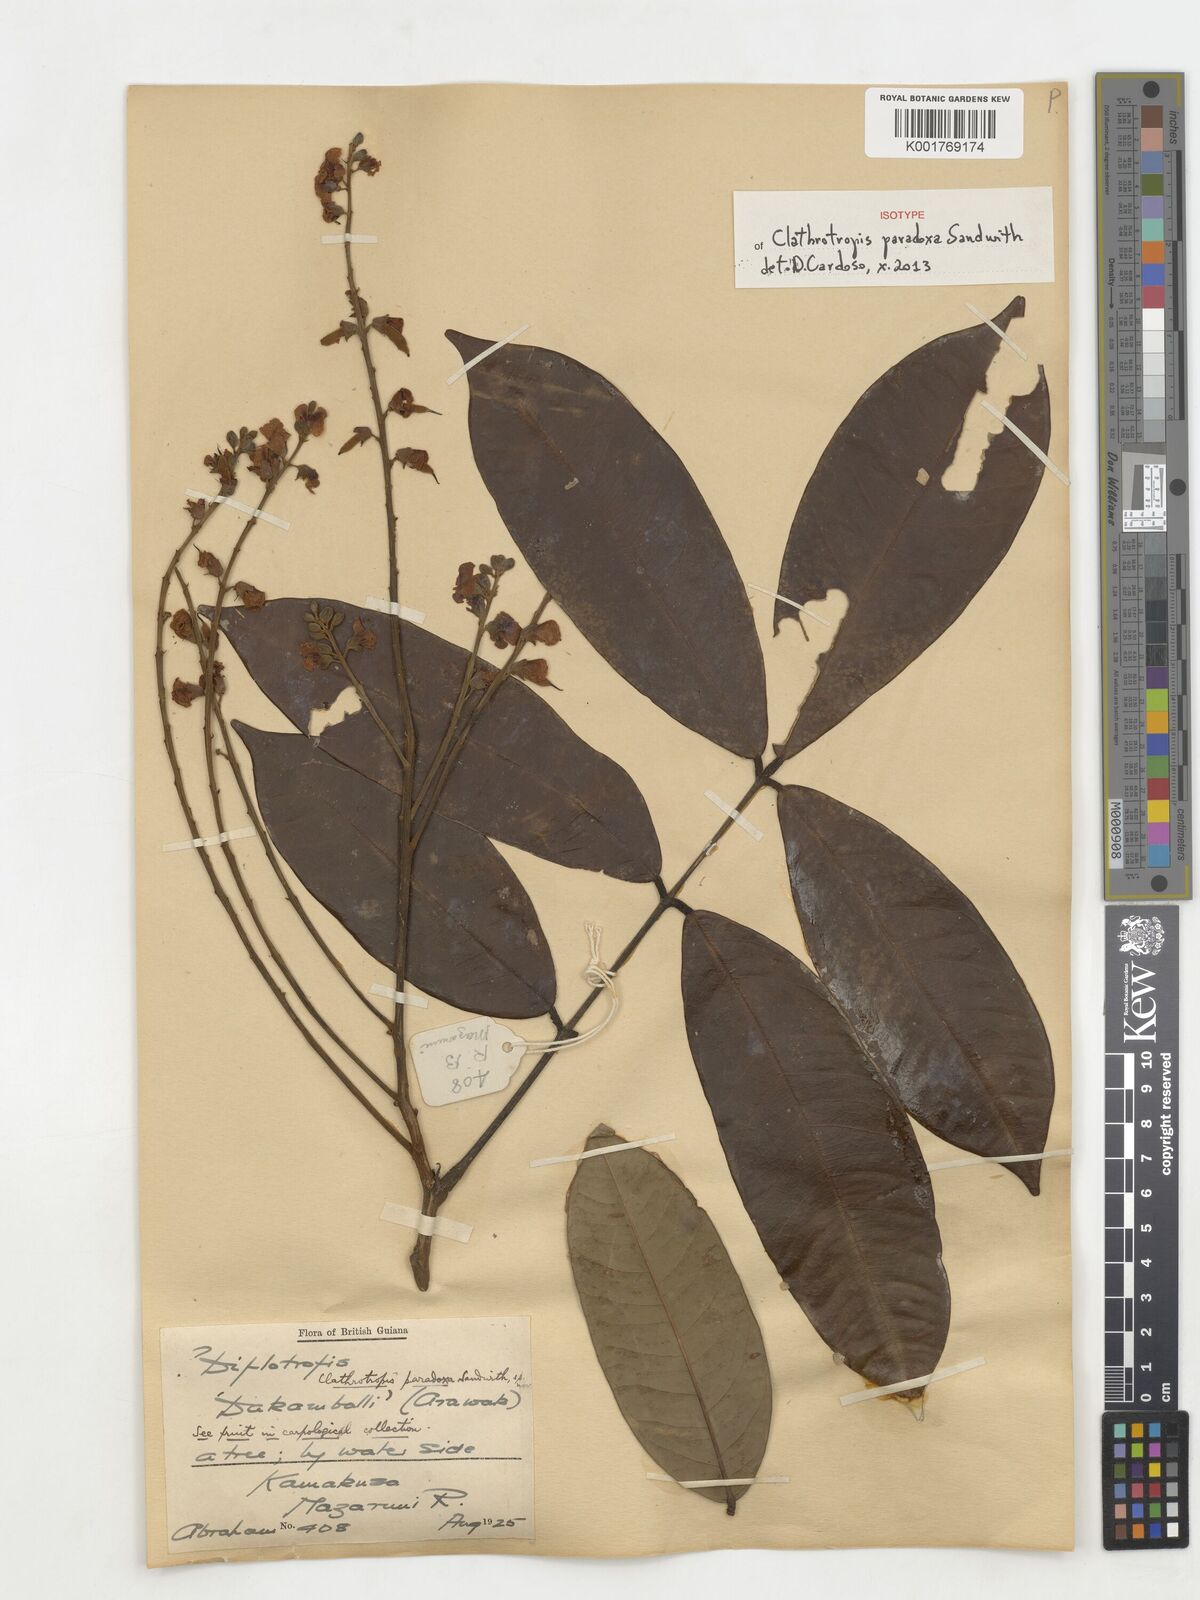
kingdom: Plantae
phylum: Tracheophyta
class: Magnoliopsida
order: Fabales
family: Fabaceae
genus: Clathrotropis
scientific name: Clathrotropis paradoxa
